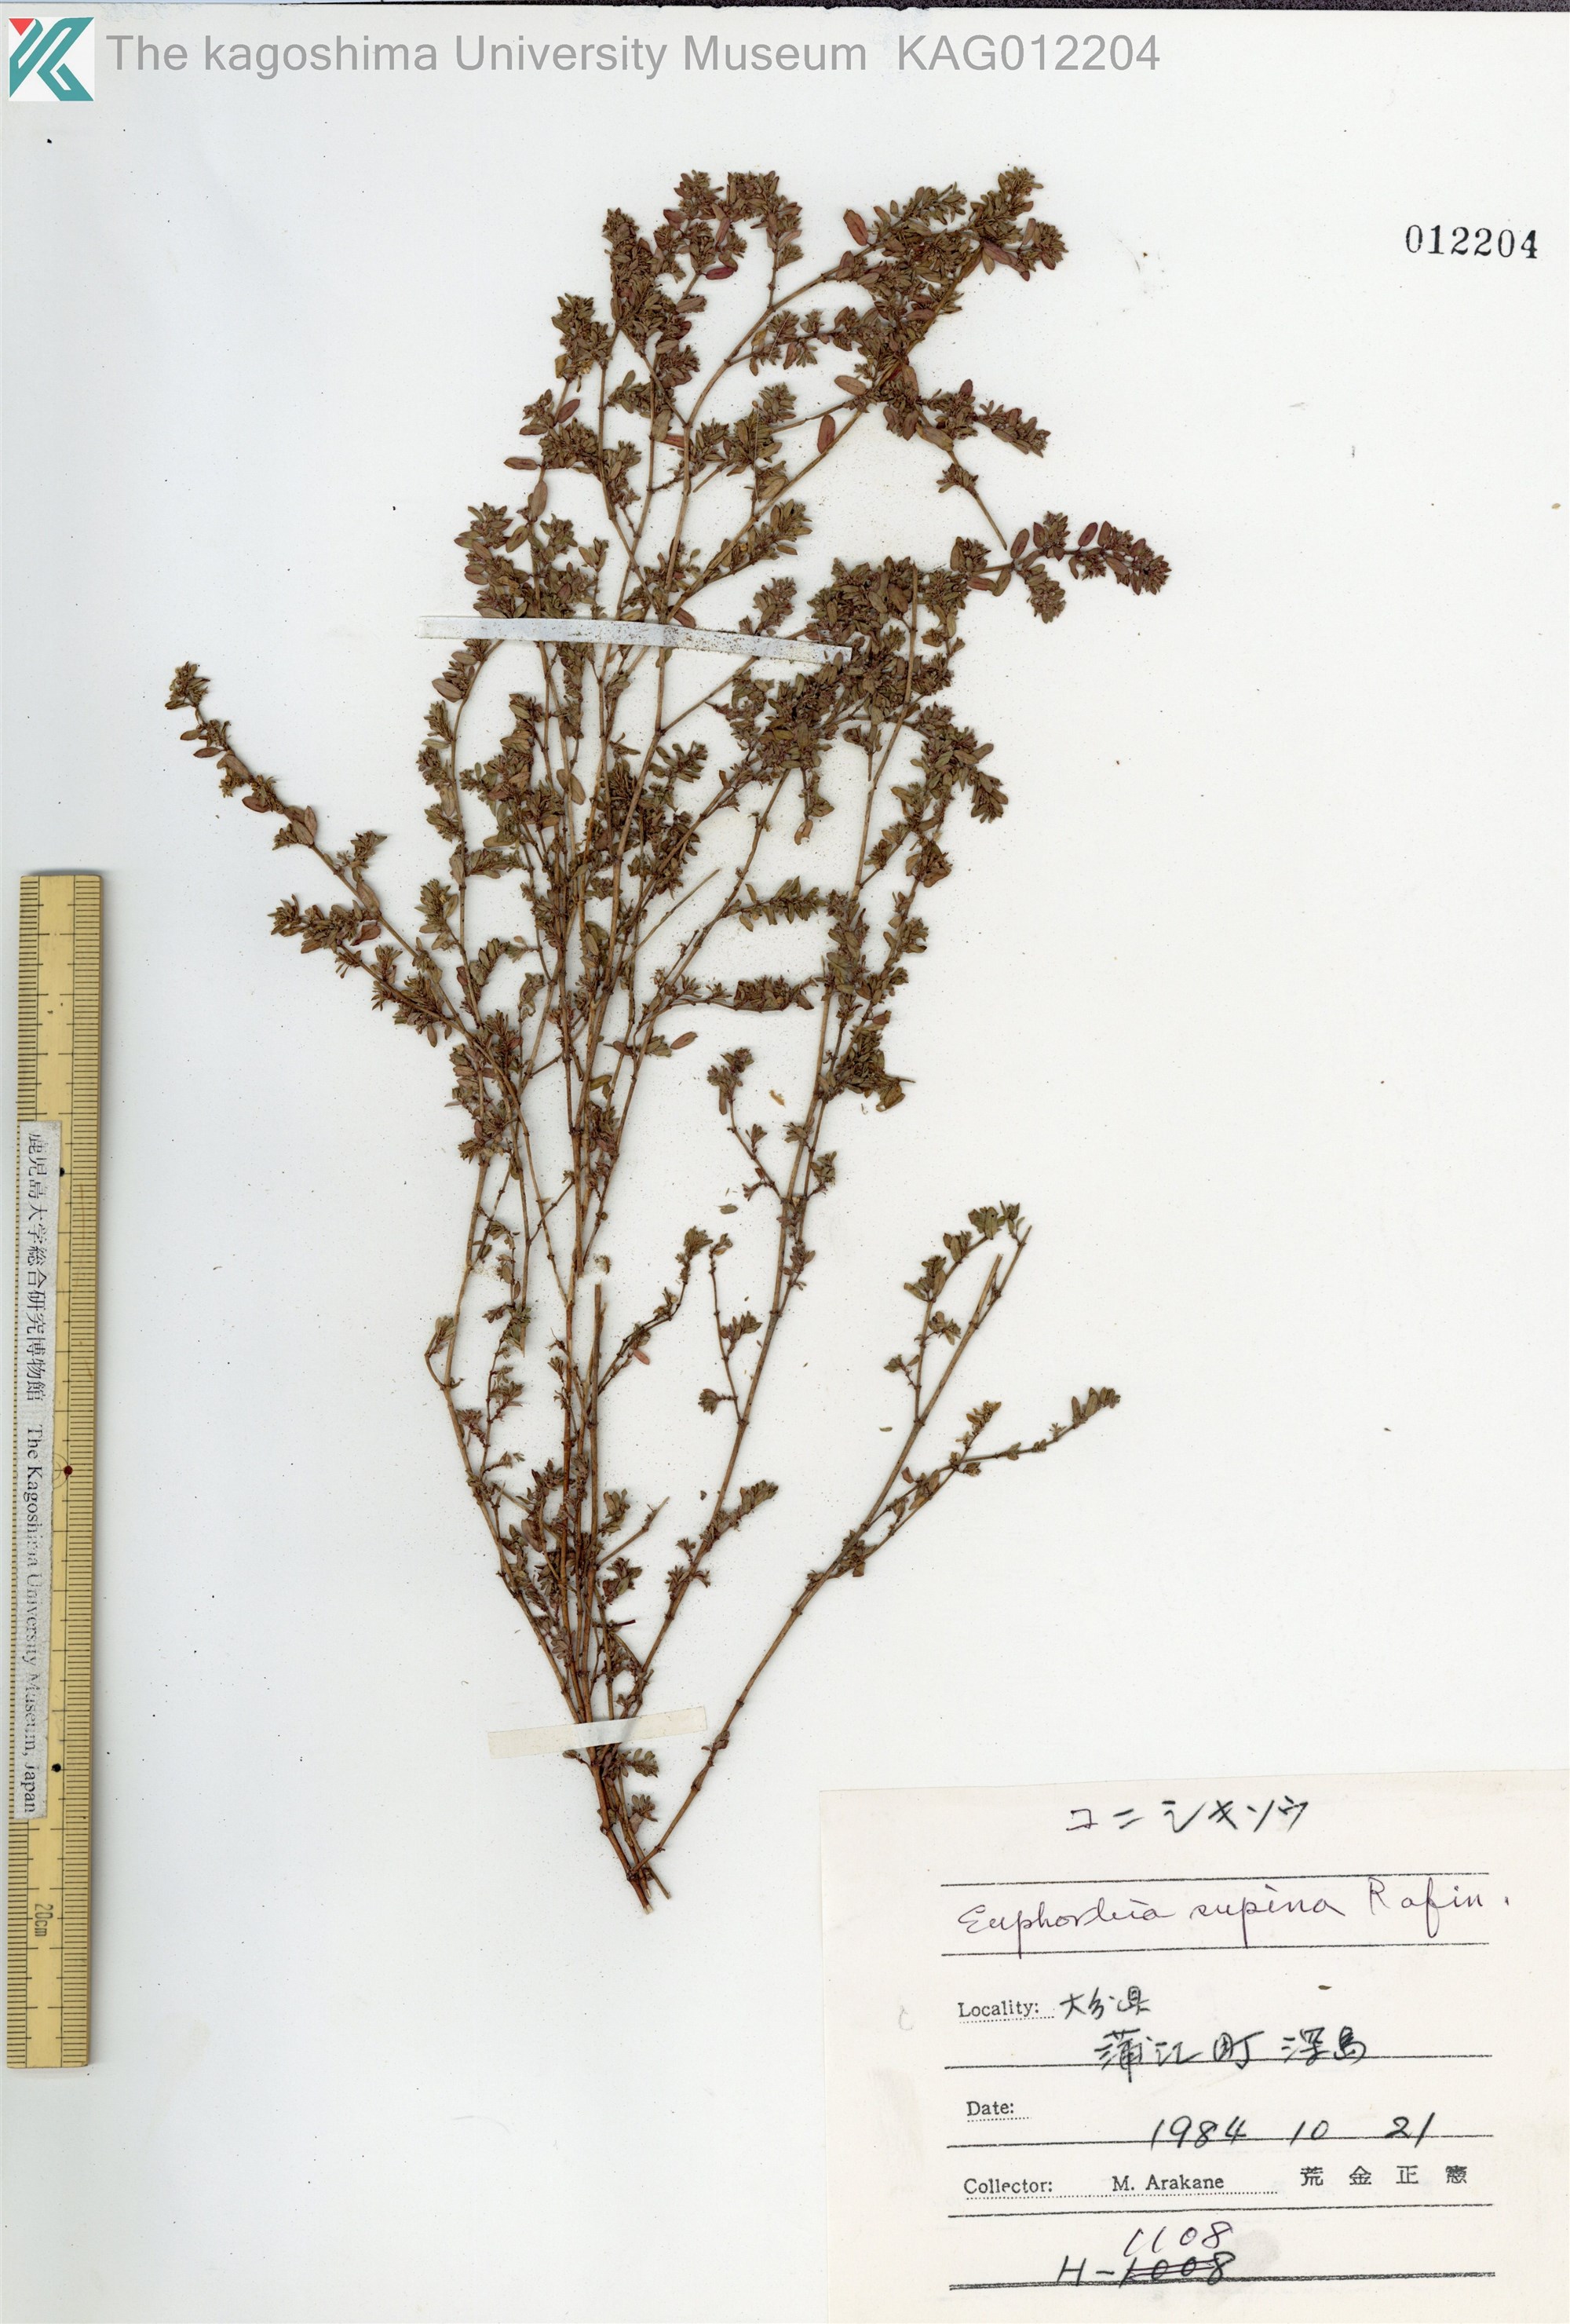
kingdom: Plantae
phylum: Tracheophyta
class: Magnoliopsida
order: Malpighiales
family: Euphorbiaceae
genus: Euphorbia
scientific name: Euphorbia maculata
